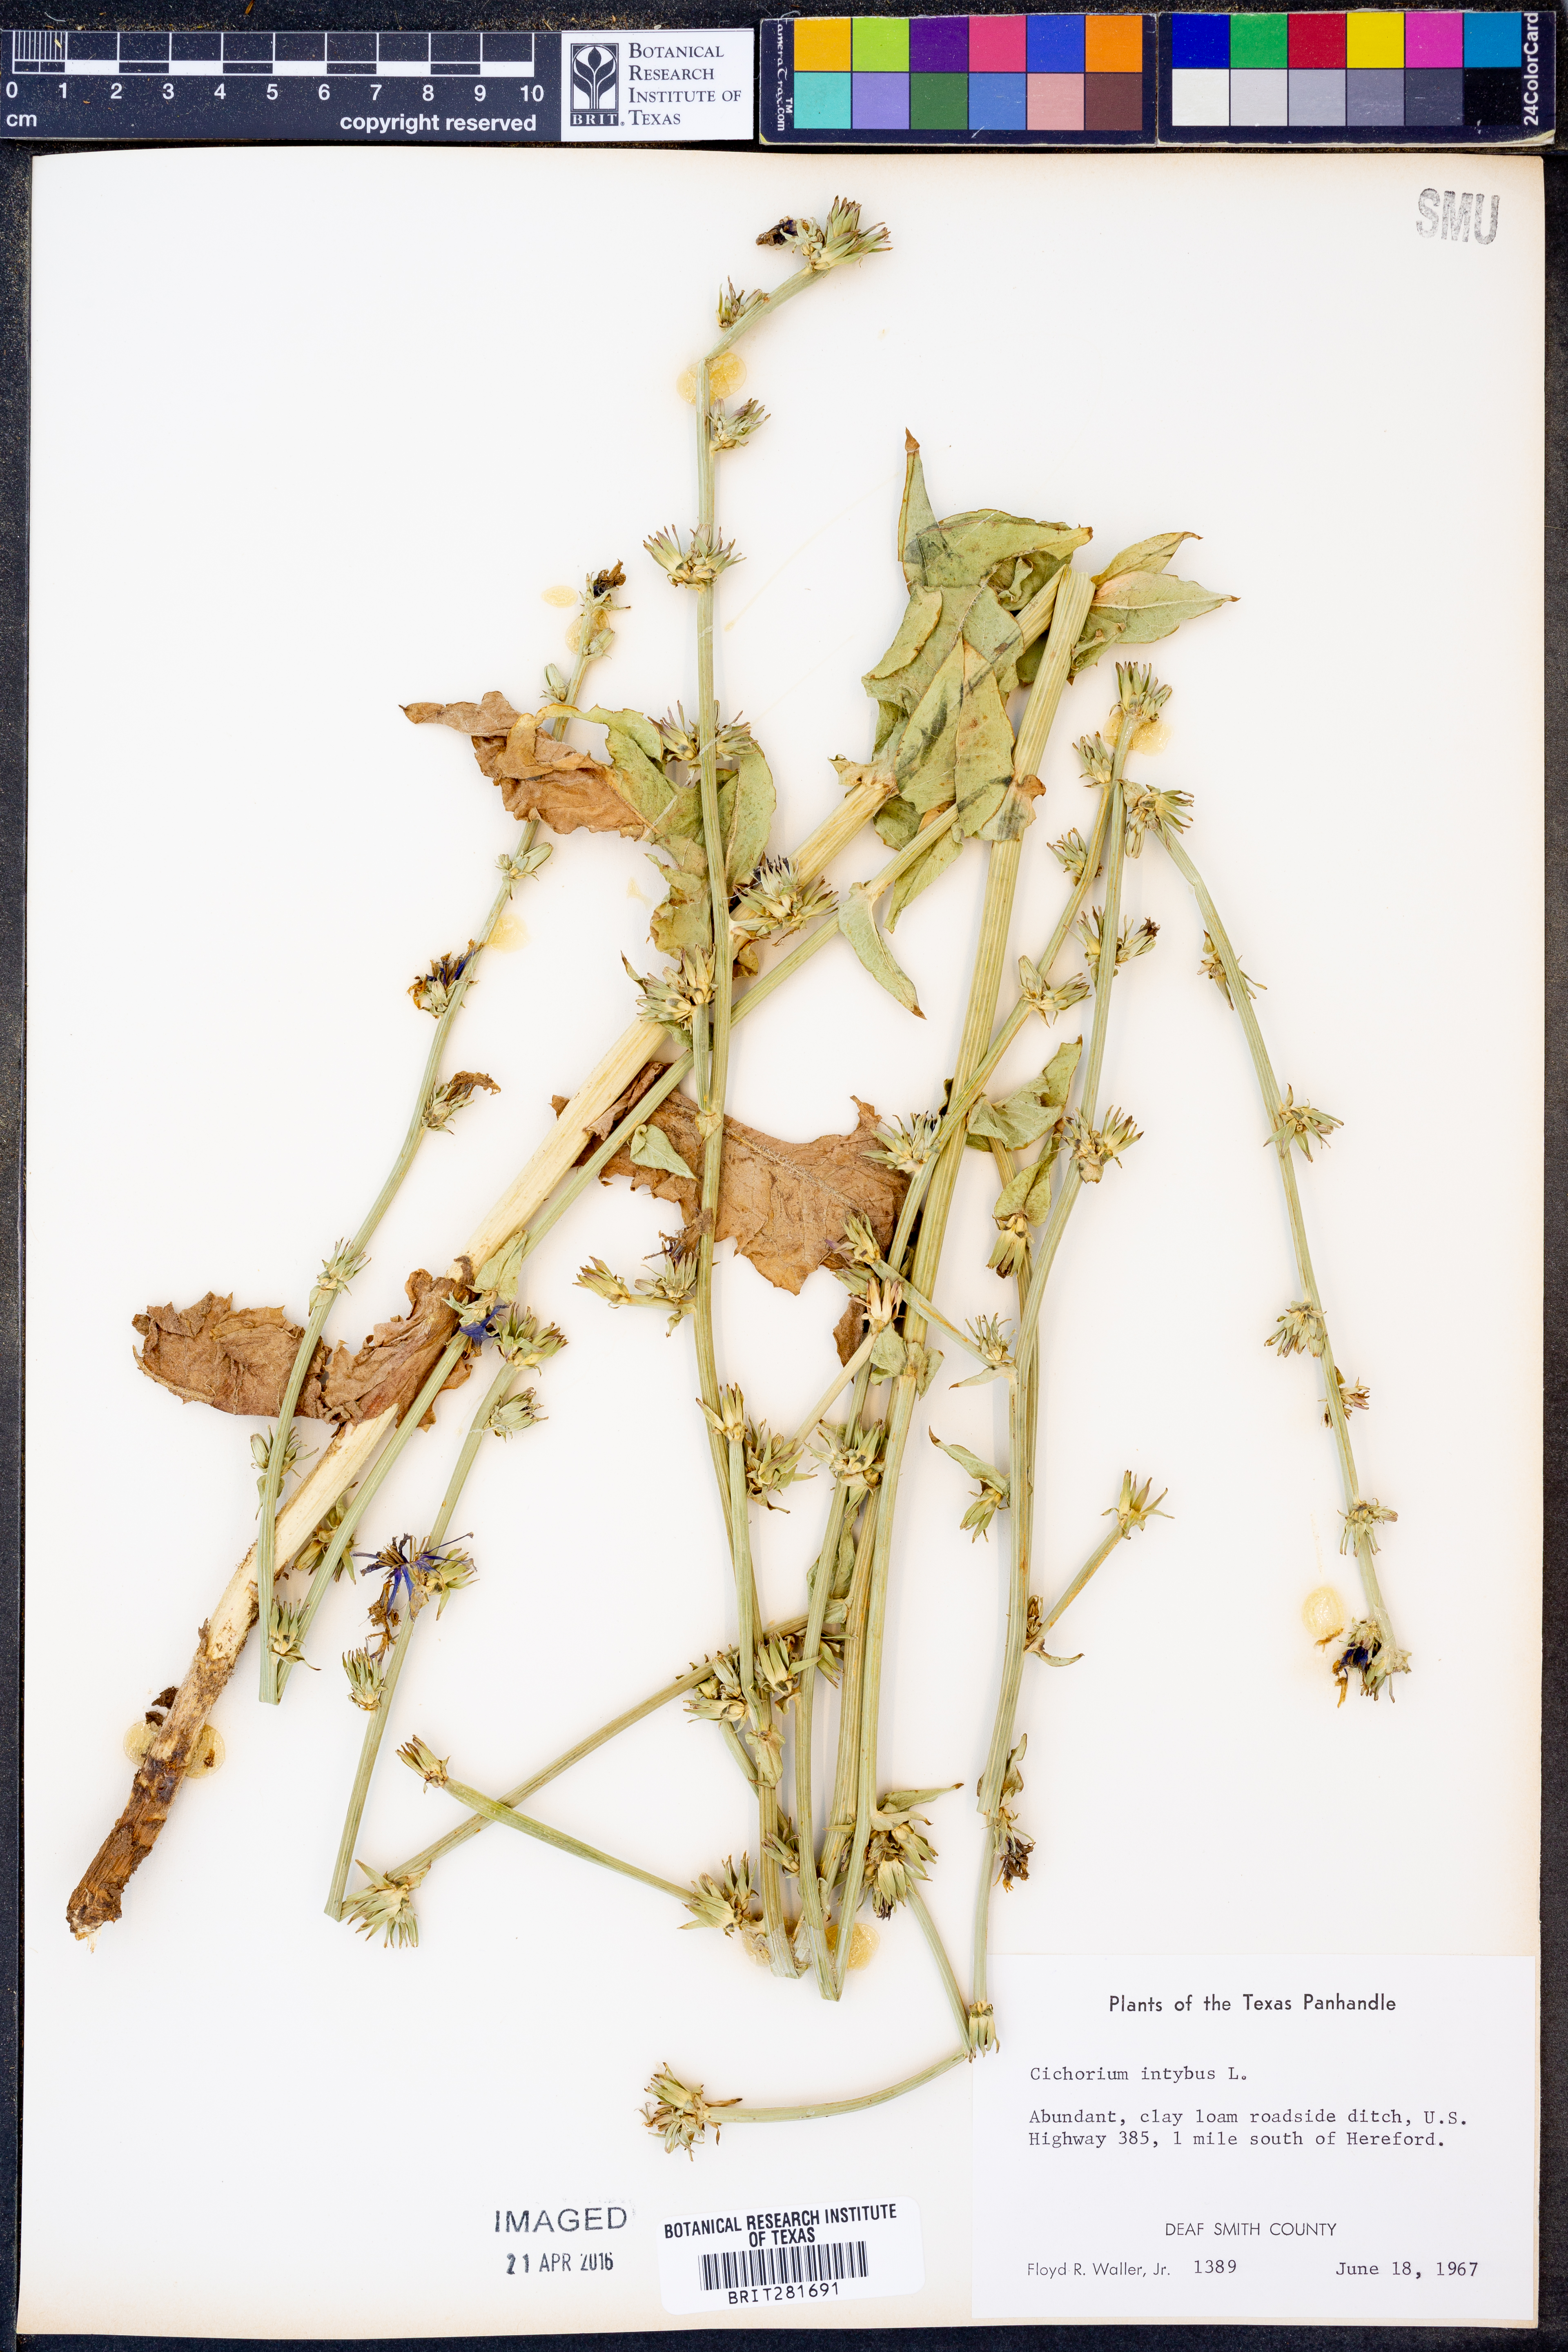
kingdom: Plantae
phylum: Tracheophyta
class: Magnoliopsida
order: Asterales
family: Asteraceae
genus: Cichorium
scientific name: Cichorium intybus
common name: Chicory
